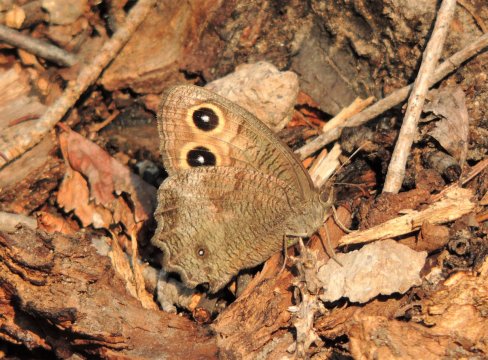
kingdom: Animalia
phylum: Arthropoda
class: Insecta
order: Lepidoptera
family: Nymphalidae
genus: Cercyonis
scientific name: Cercyonis pegala
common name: Common Wood-Nymph
